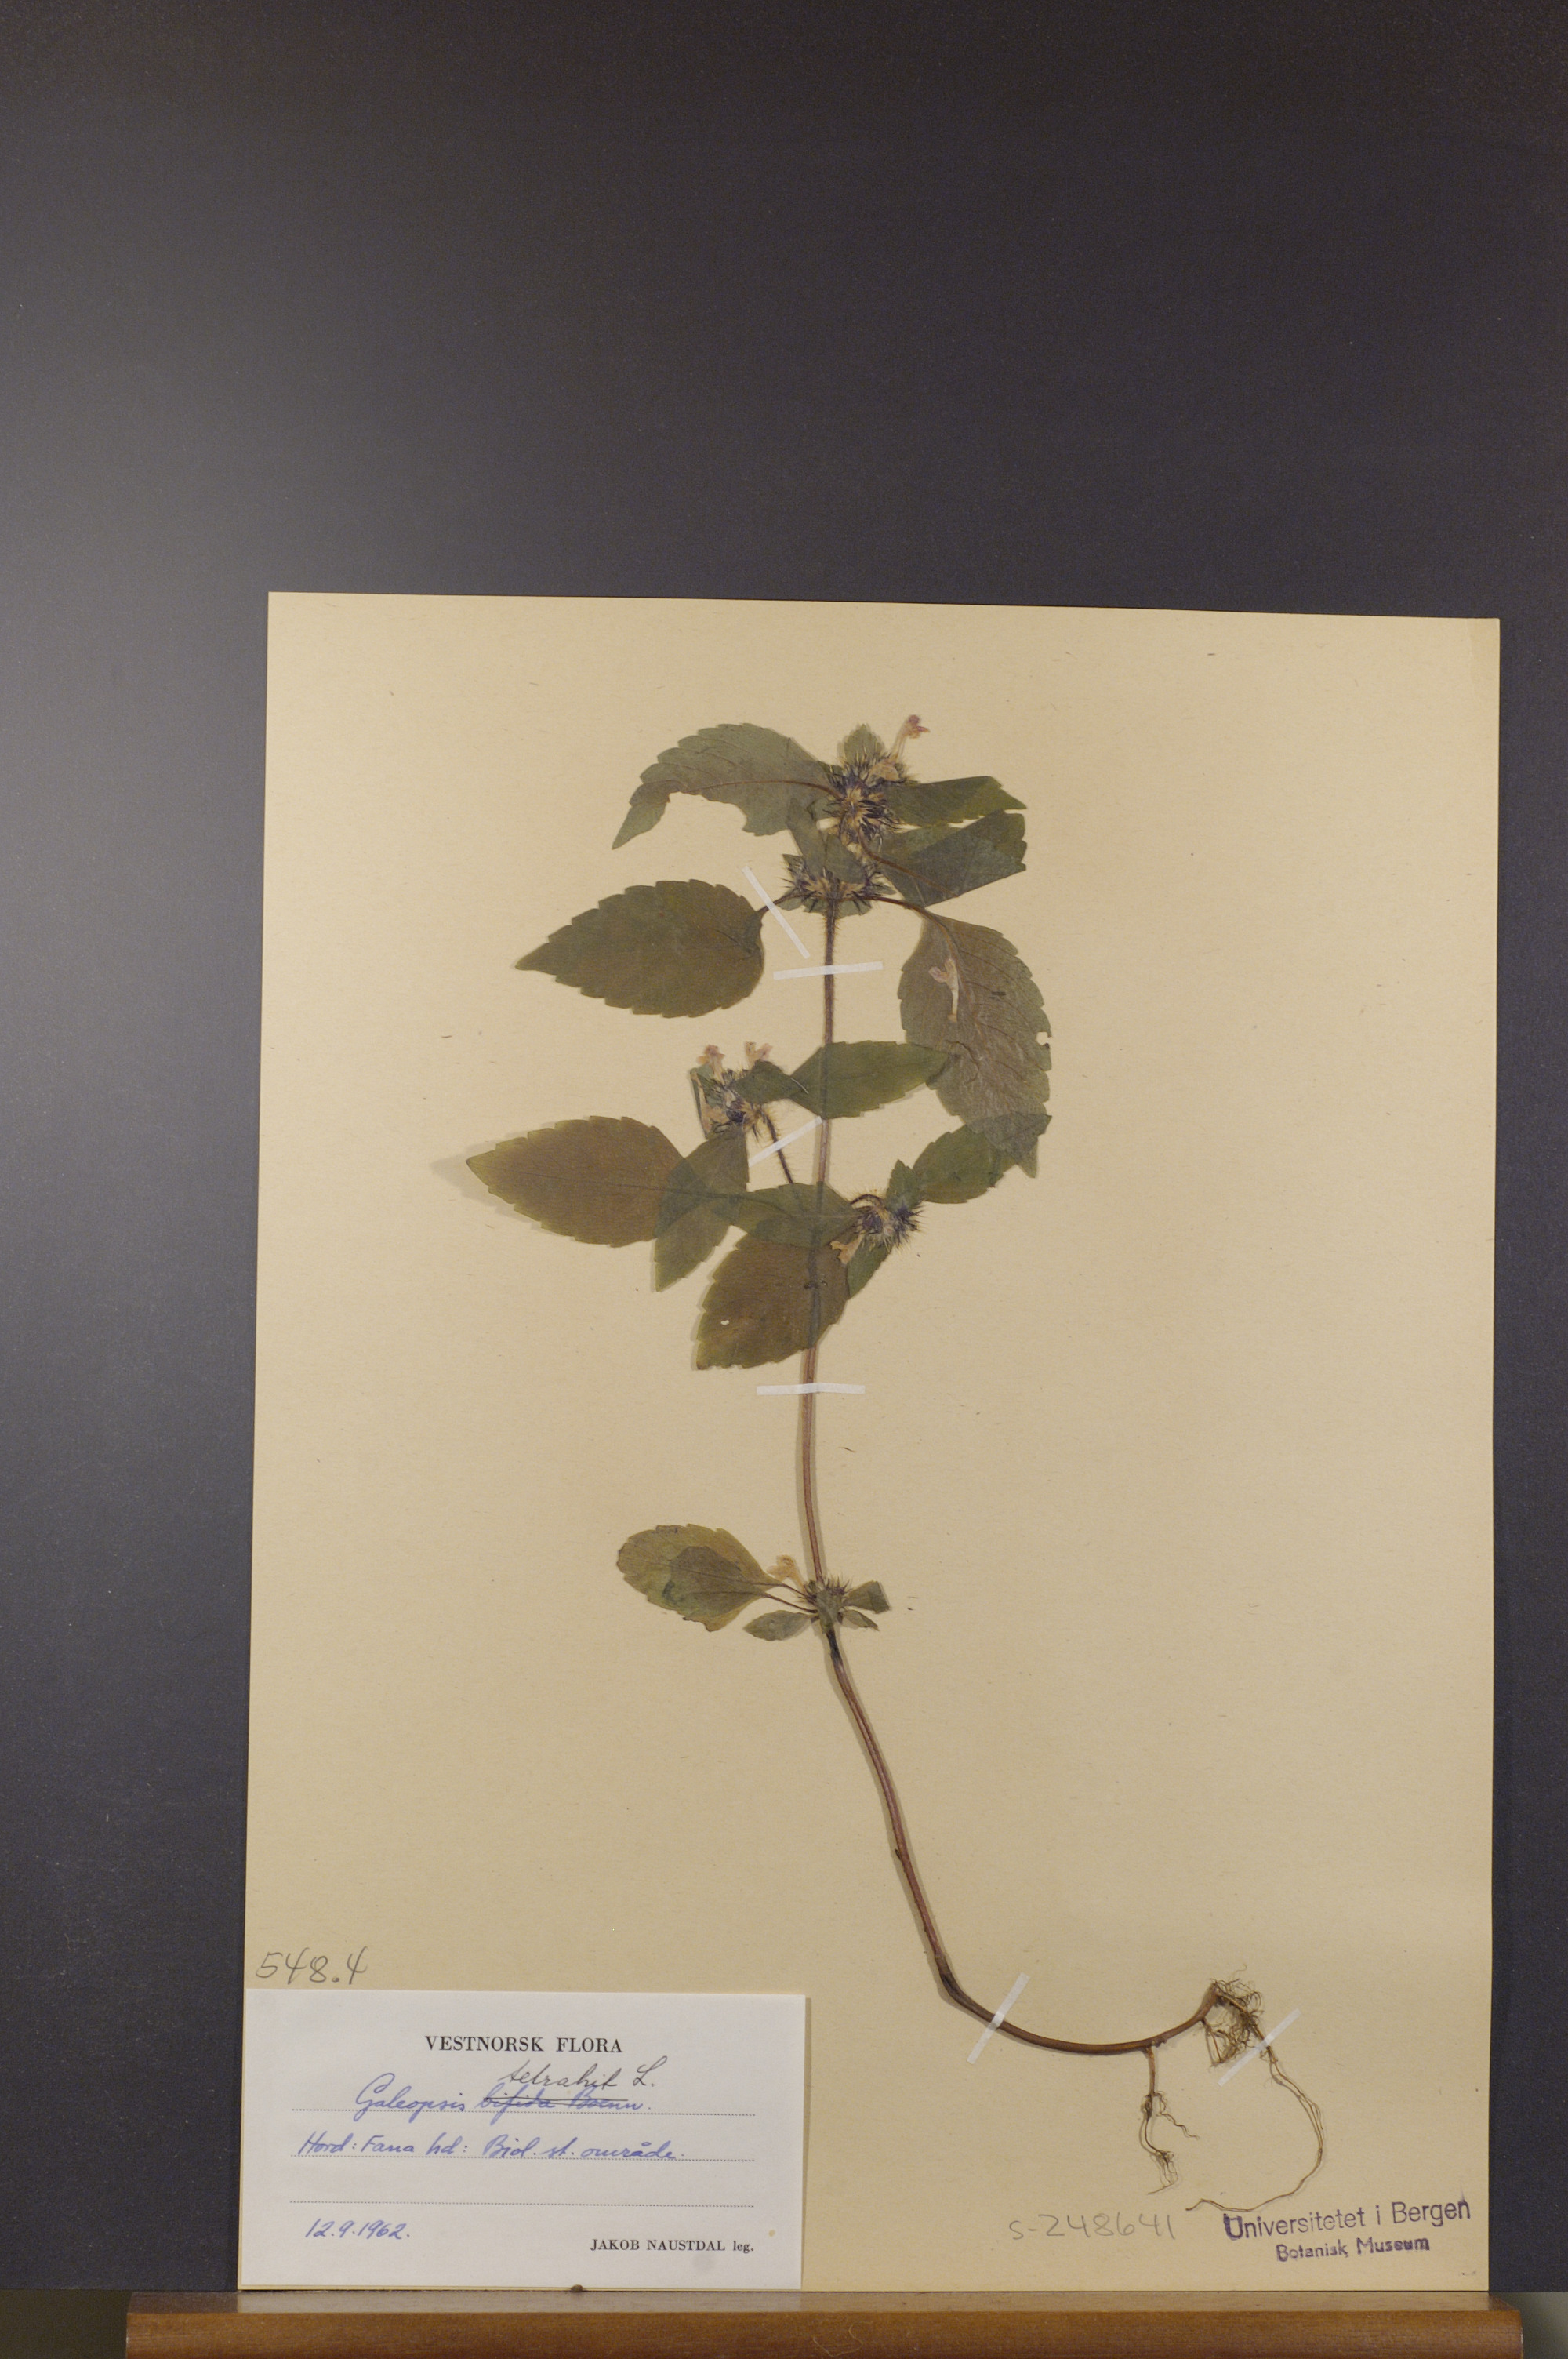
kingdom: Plantae
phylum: Tracheophyta
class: Magnoliopsida
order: Lamiales
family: Lamiaceae
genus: Galeopsis
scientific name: Galeopsis tetrahit
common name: Common hemp-nettle
